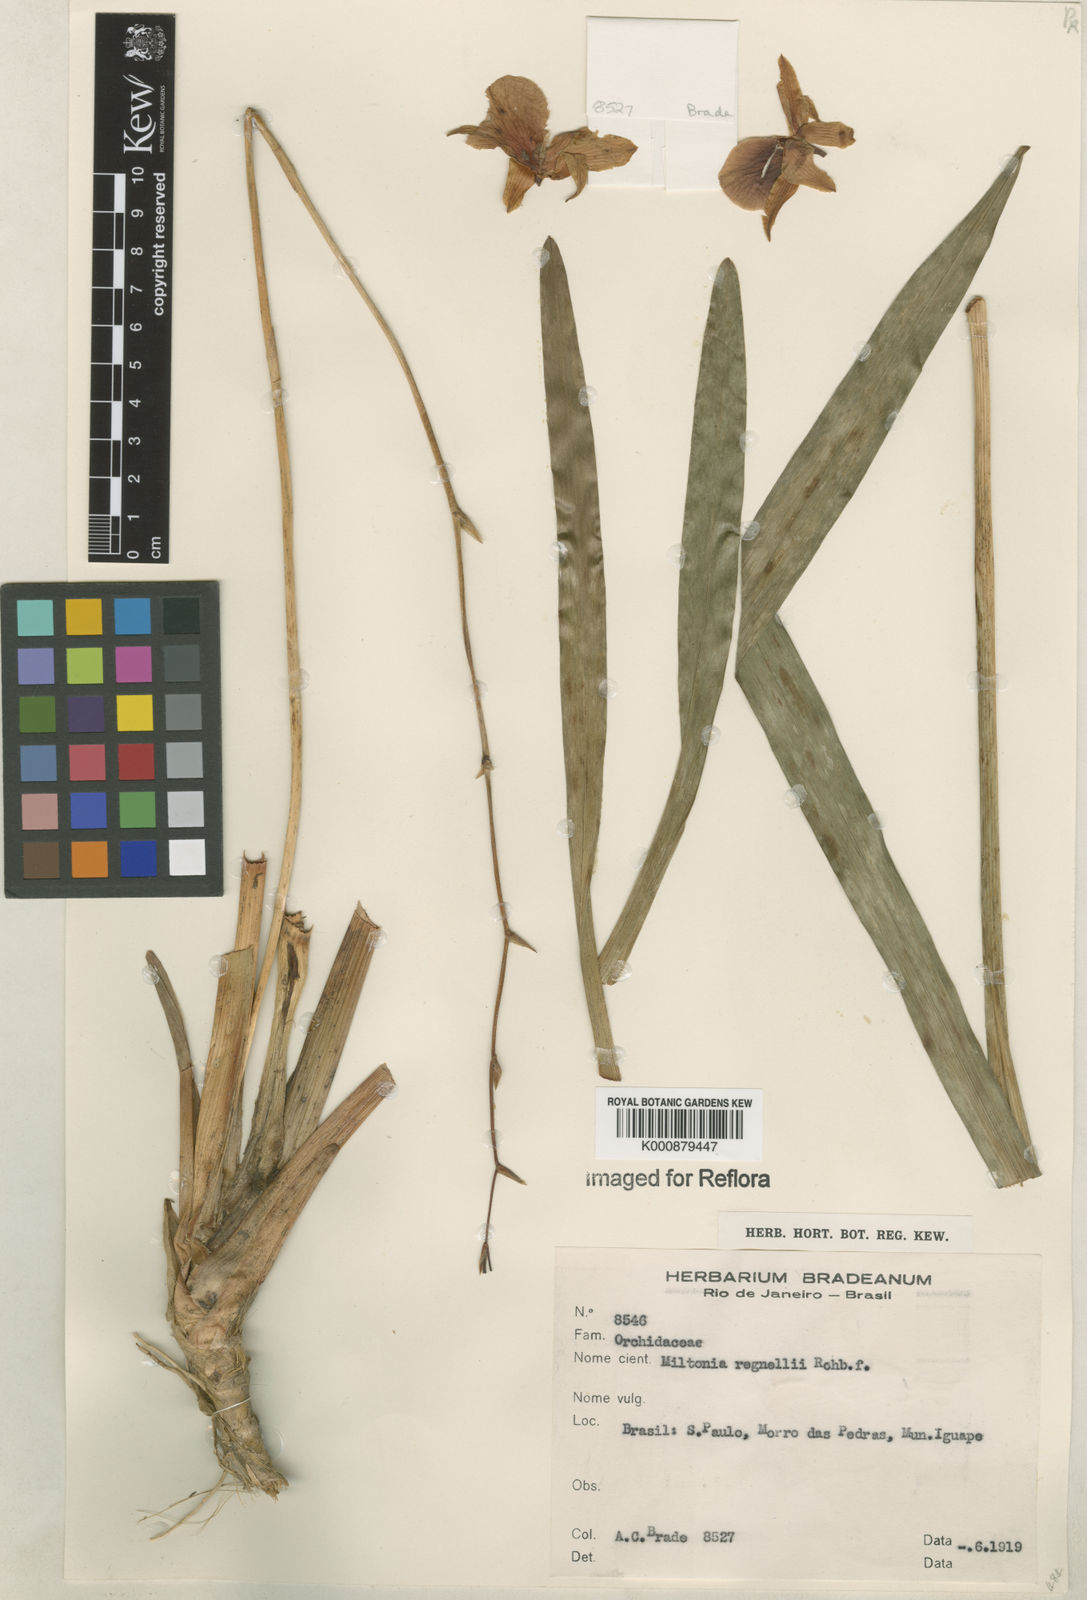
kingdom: Plantae
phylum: Tracheophyta
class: Liliopsida
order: Asparagales
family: Orchidaceae
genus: Miltonia
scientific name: Miltonia regnellii
